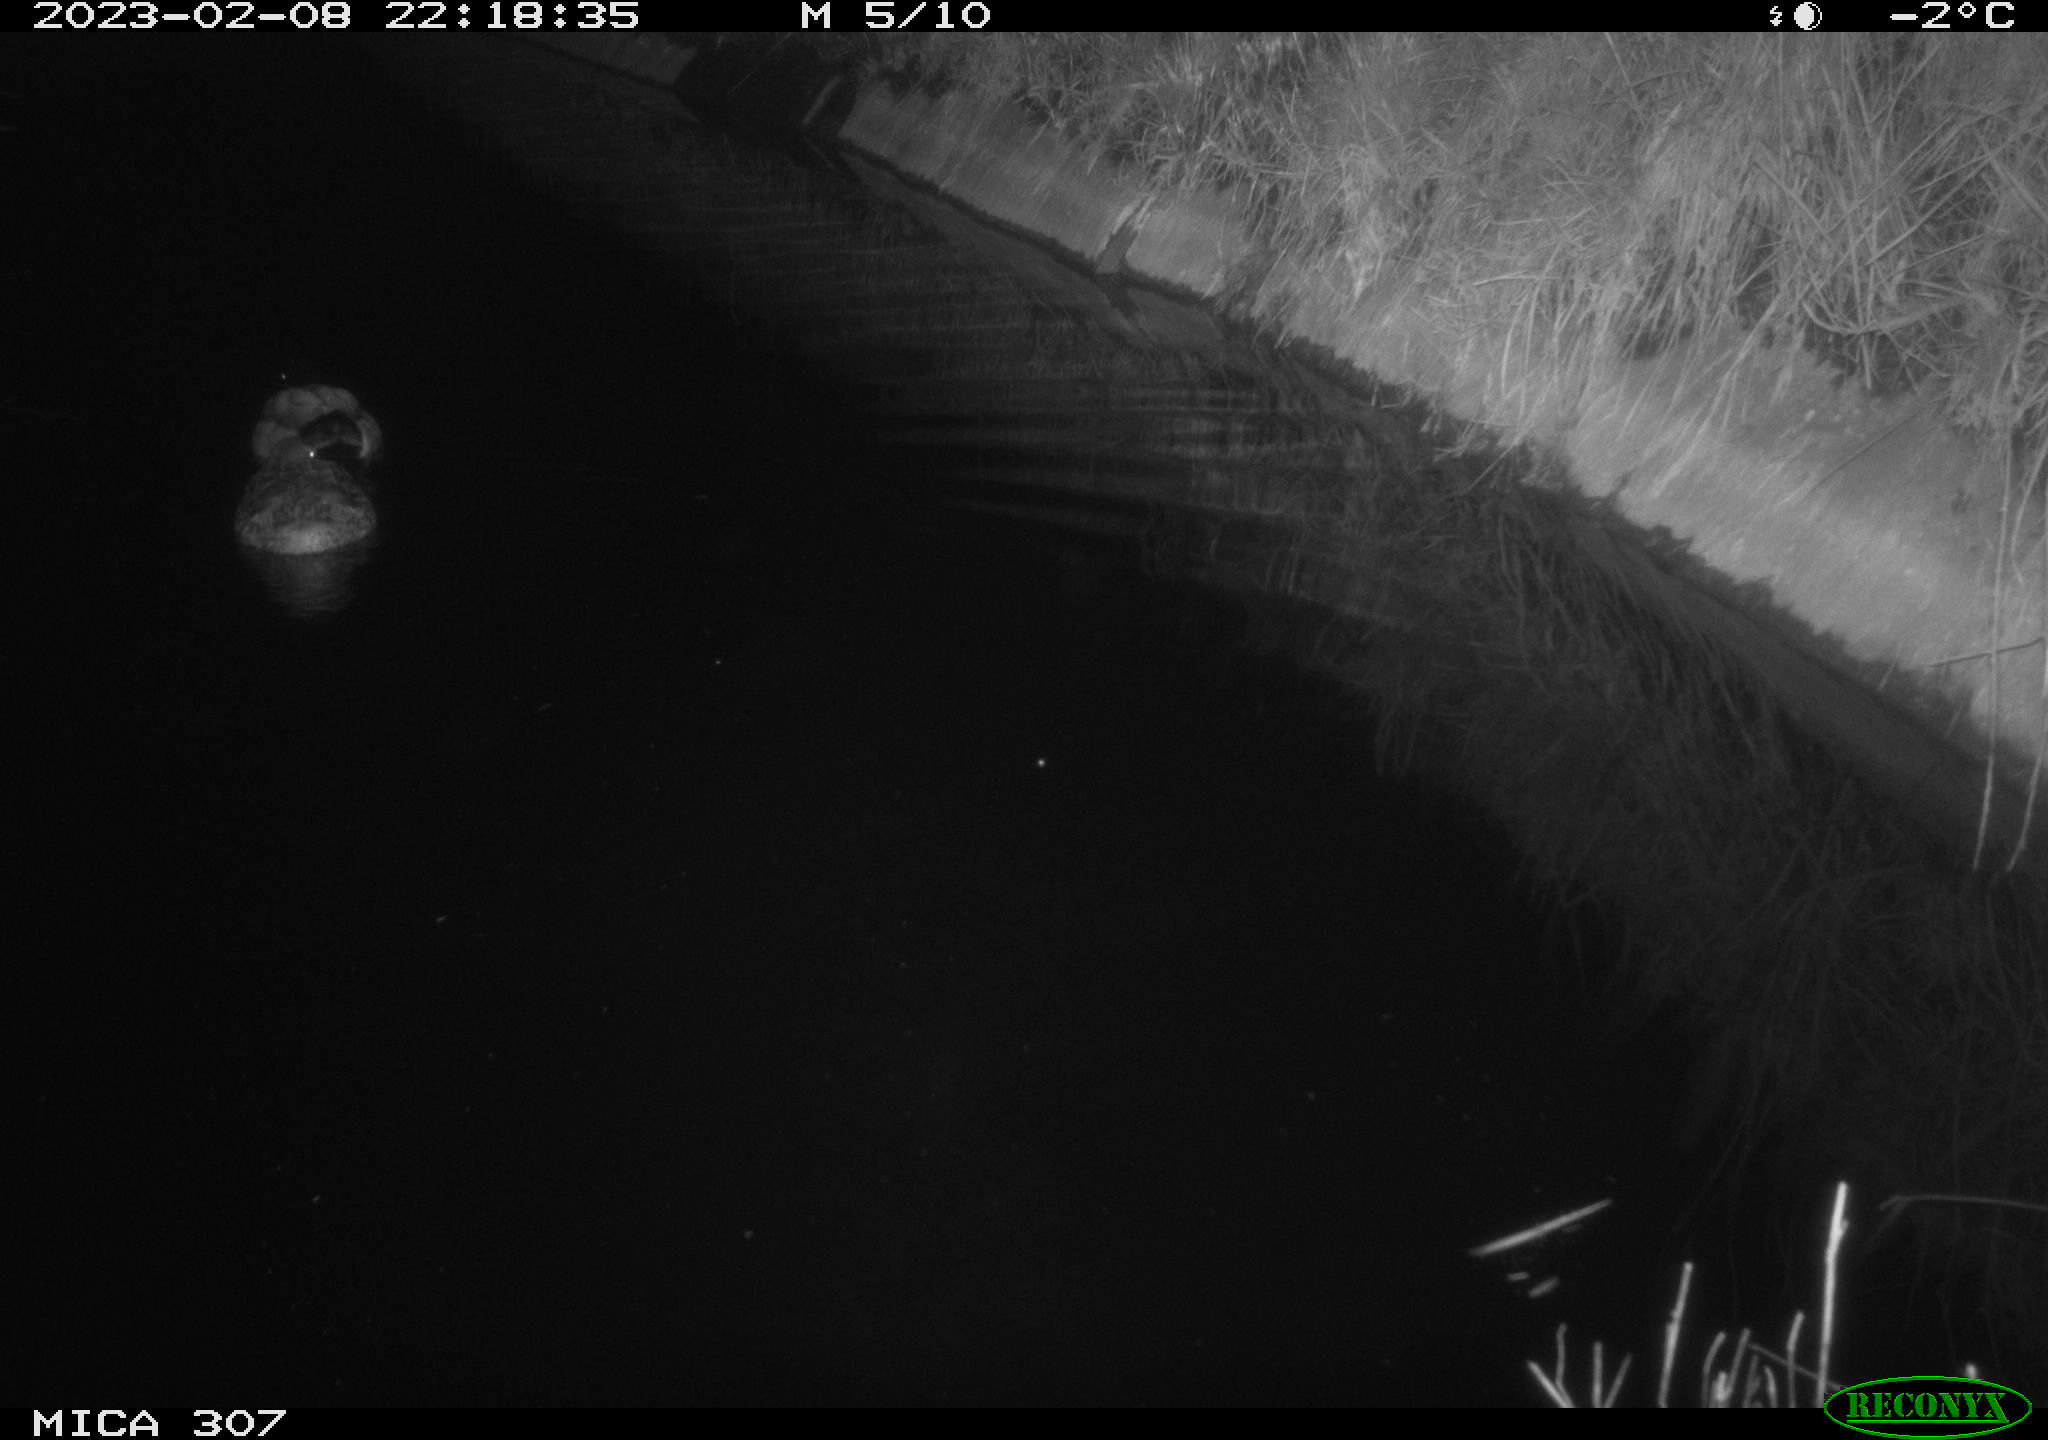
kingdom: Animalia
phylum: Chordata
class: Aves
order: Anseriformes
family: Anatidae
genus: Anas
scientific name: Anas
